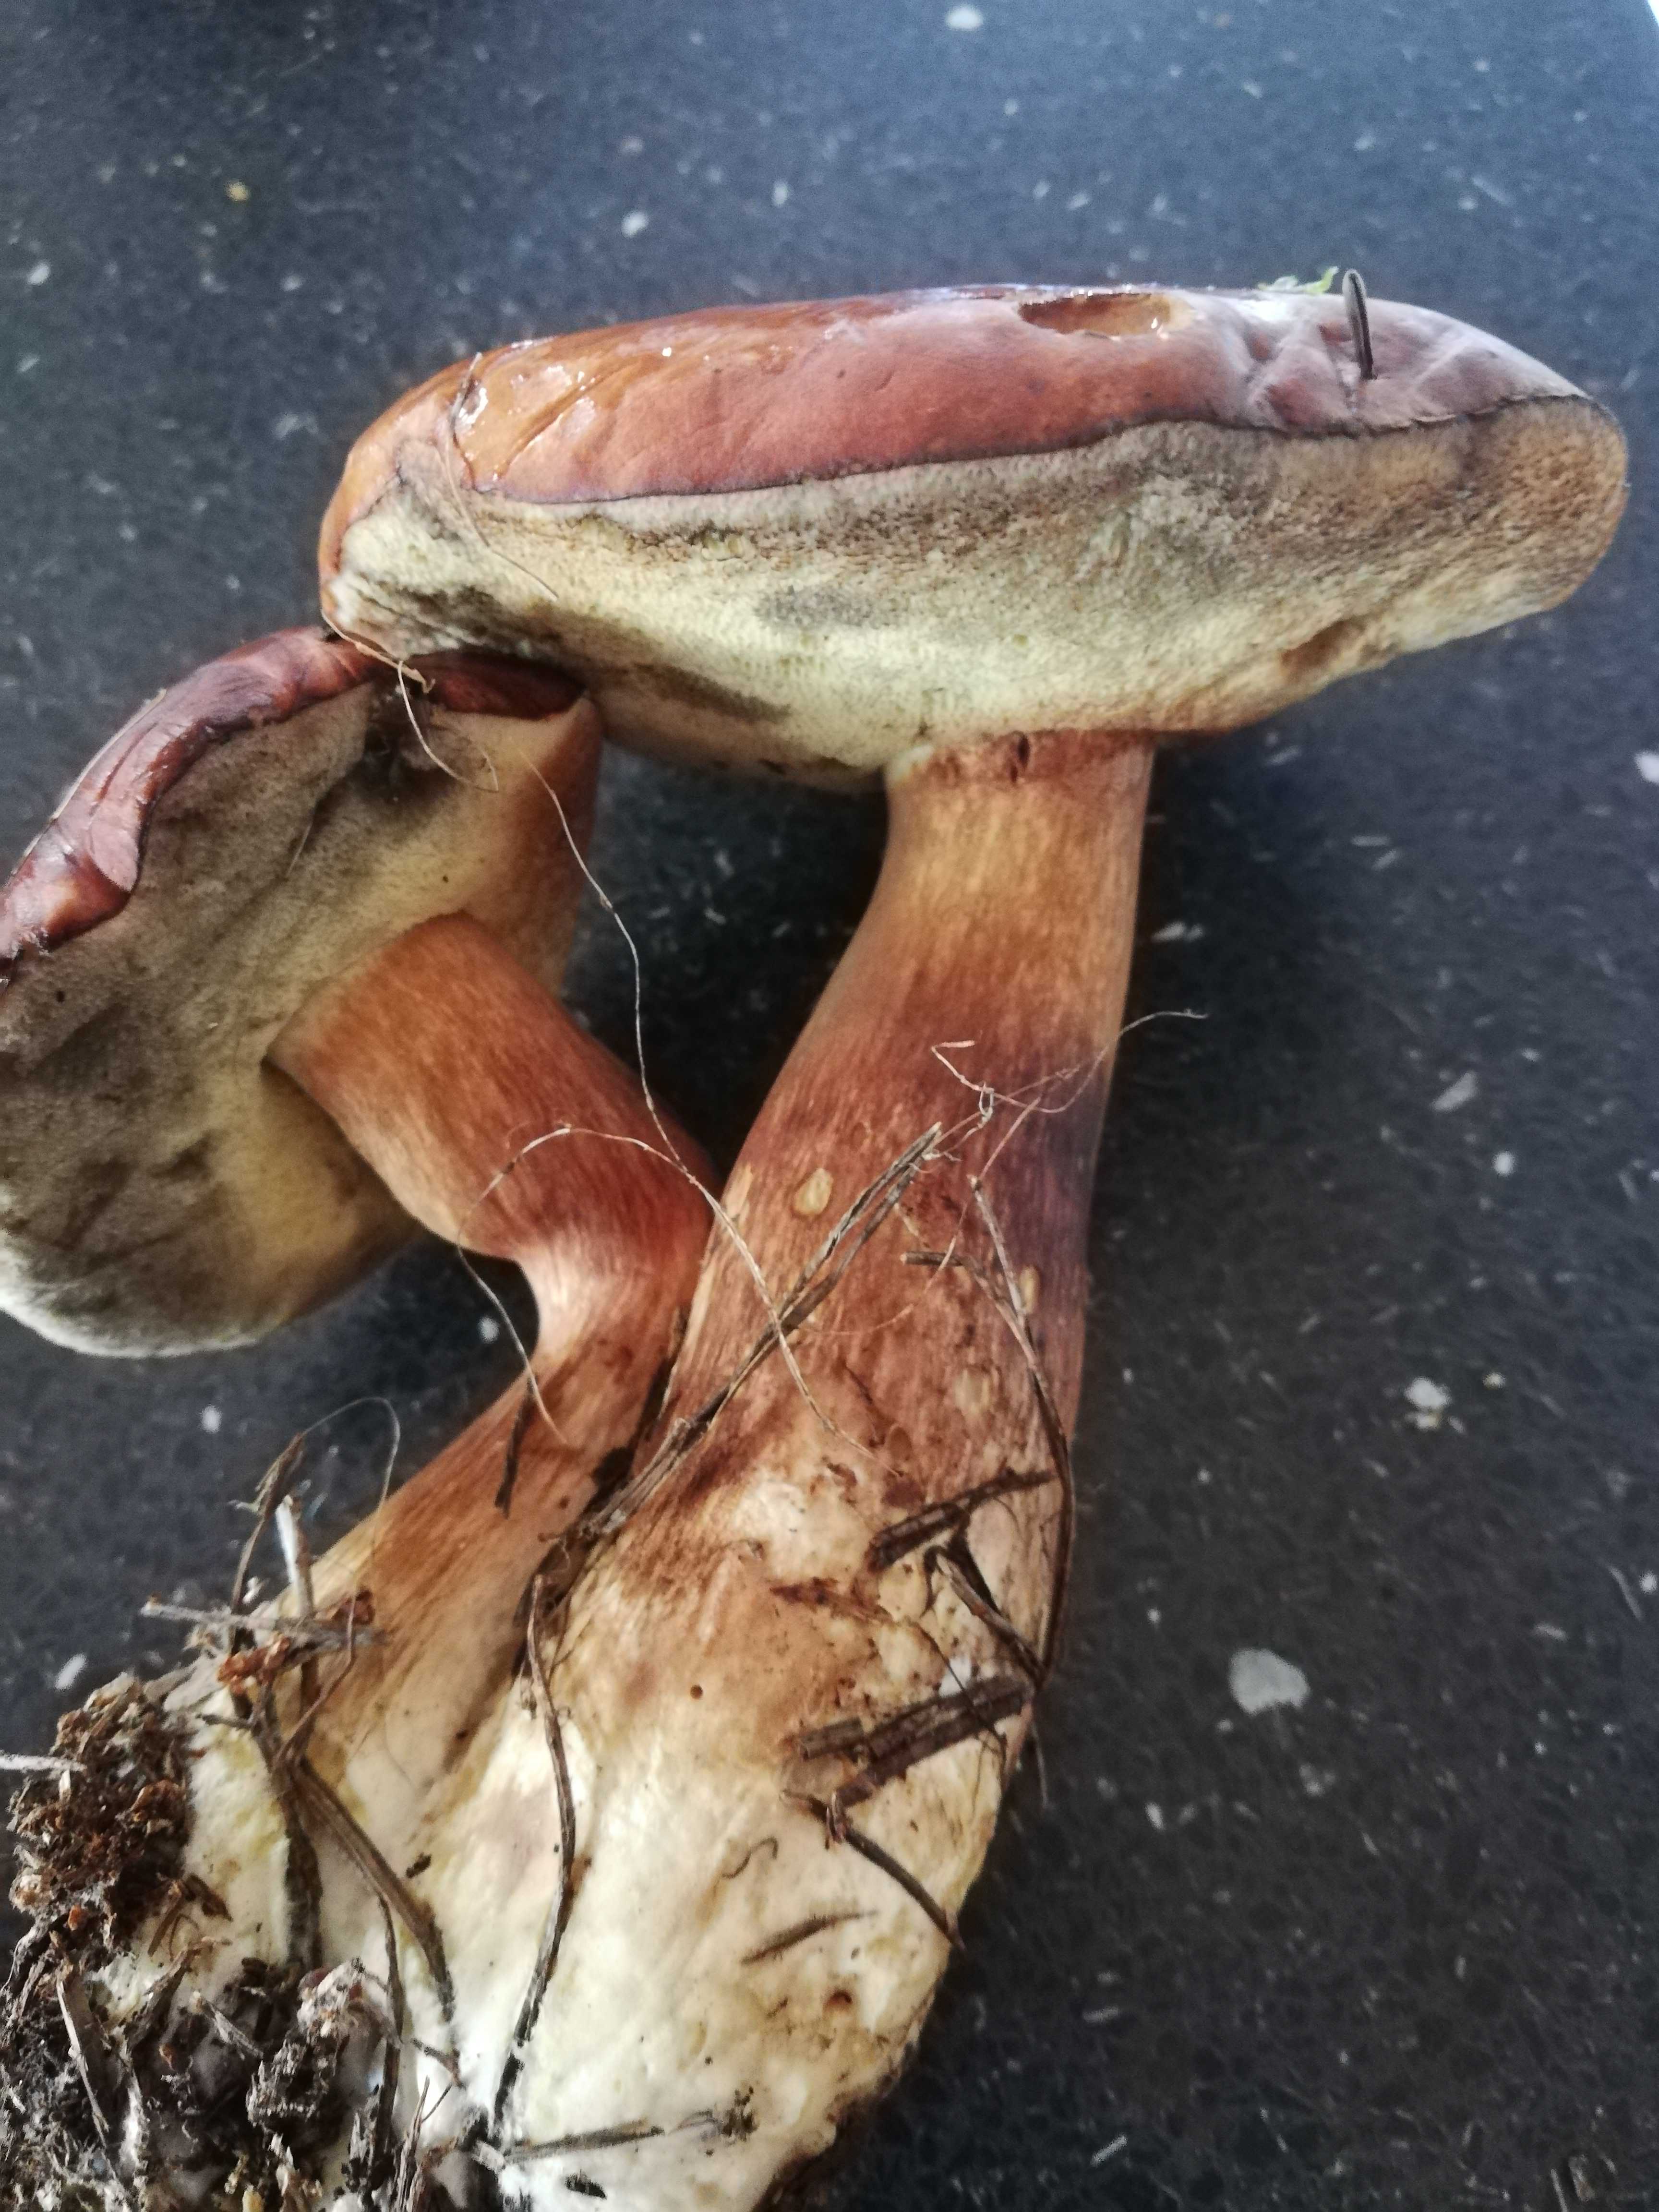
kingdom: Fungi
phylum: Basidiomycota
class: Agaricomycetes
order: Boletales
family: Boletaceae
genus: Imleria
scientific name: Imleria badia
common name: brunstokket rørhat
